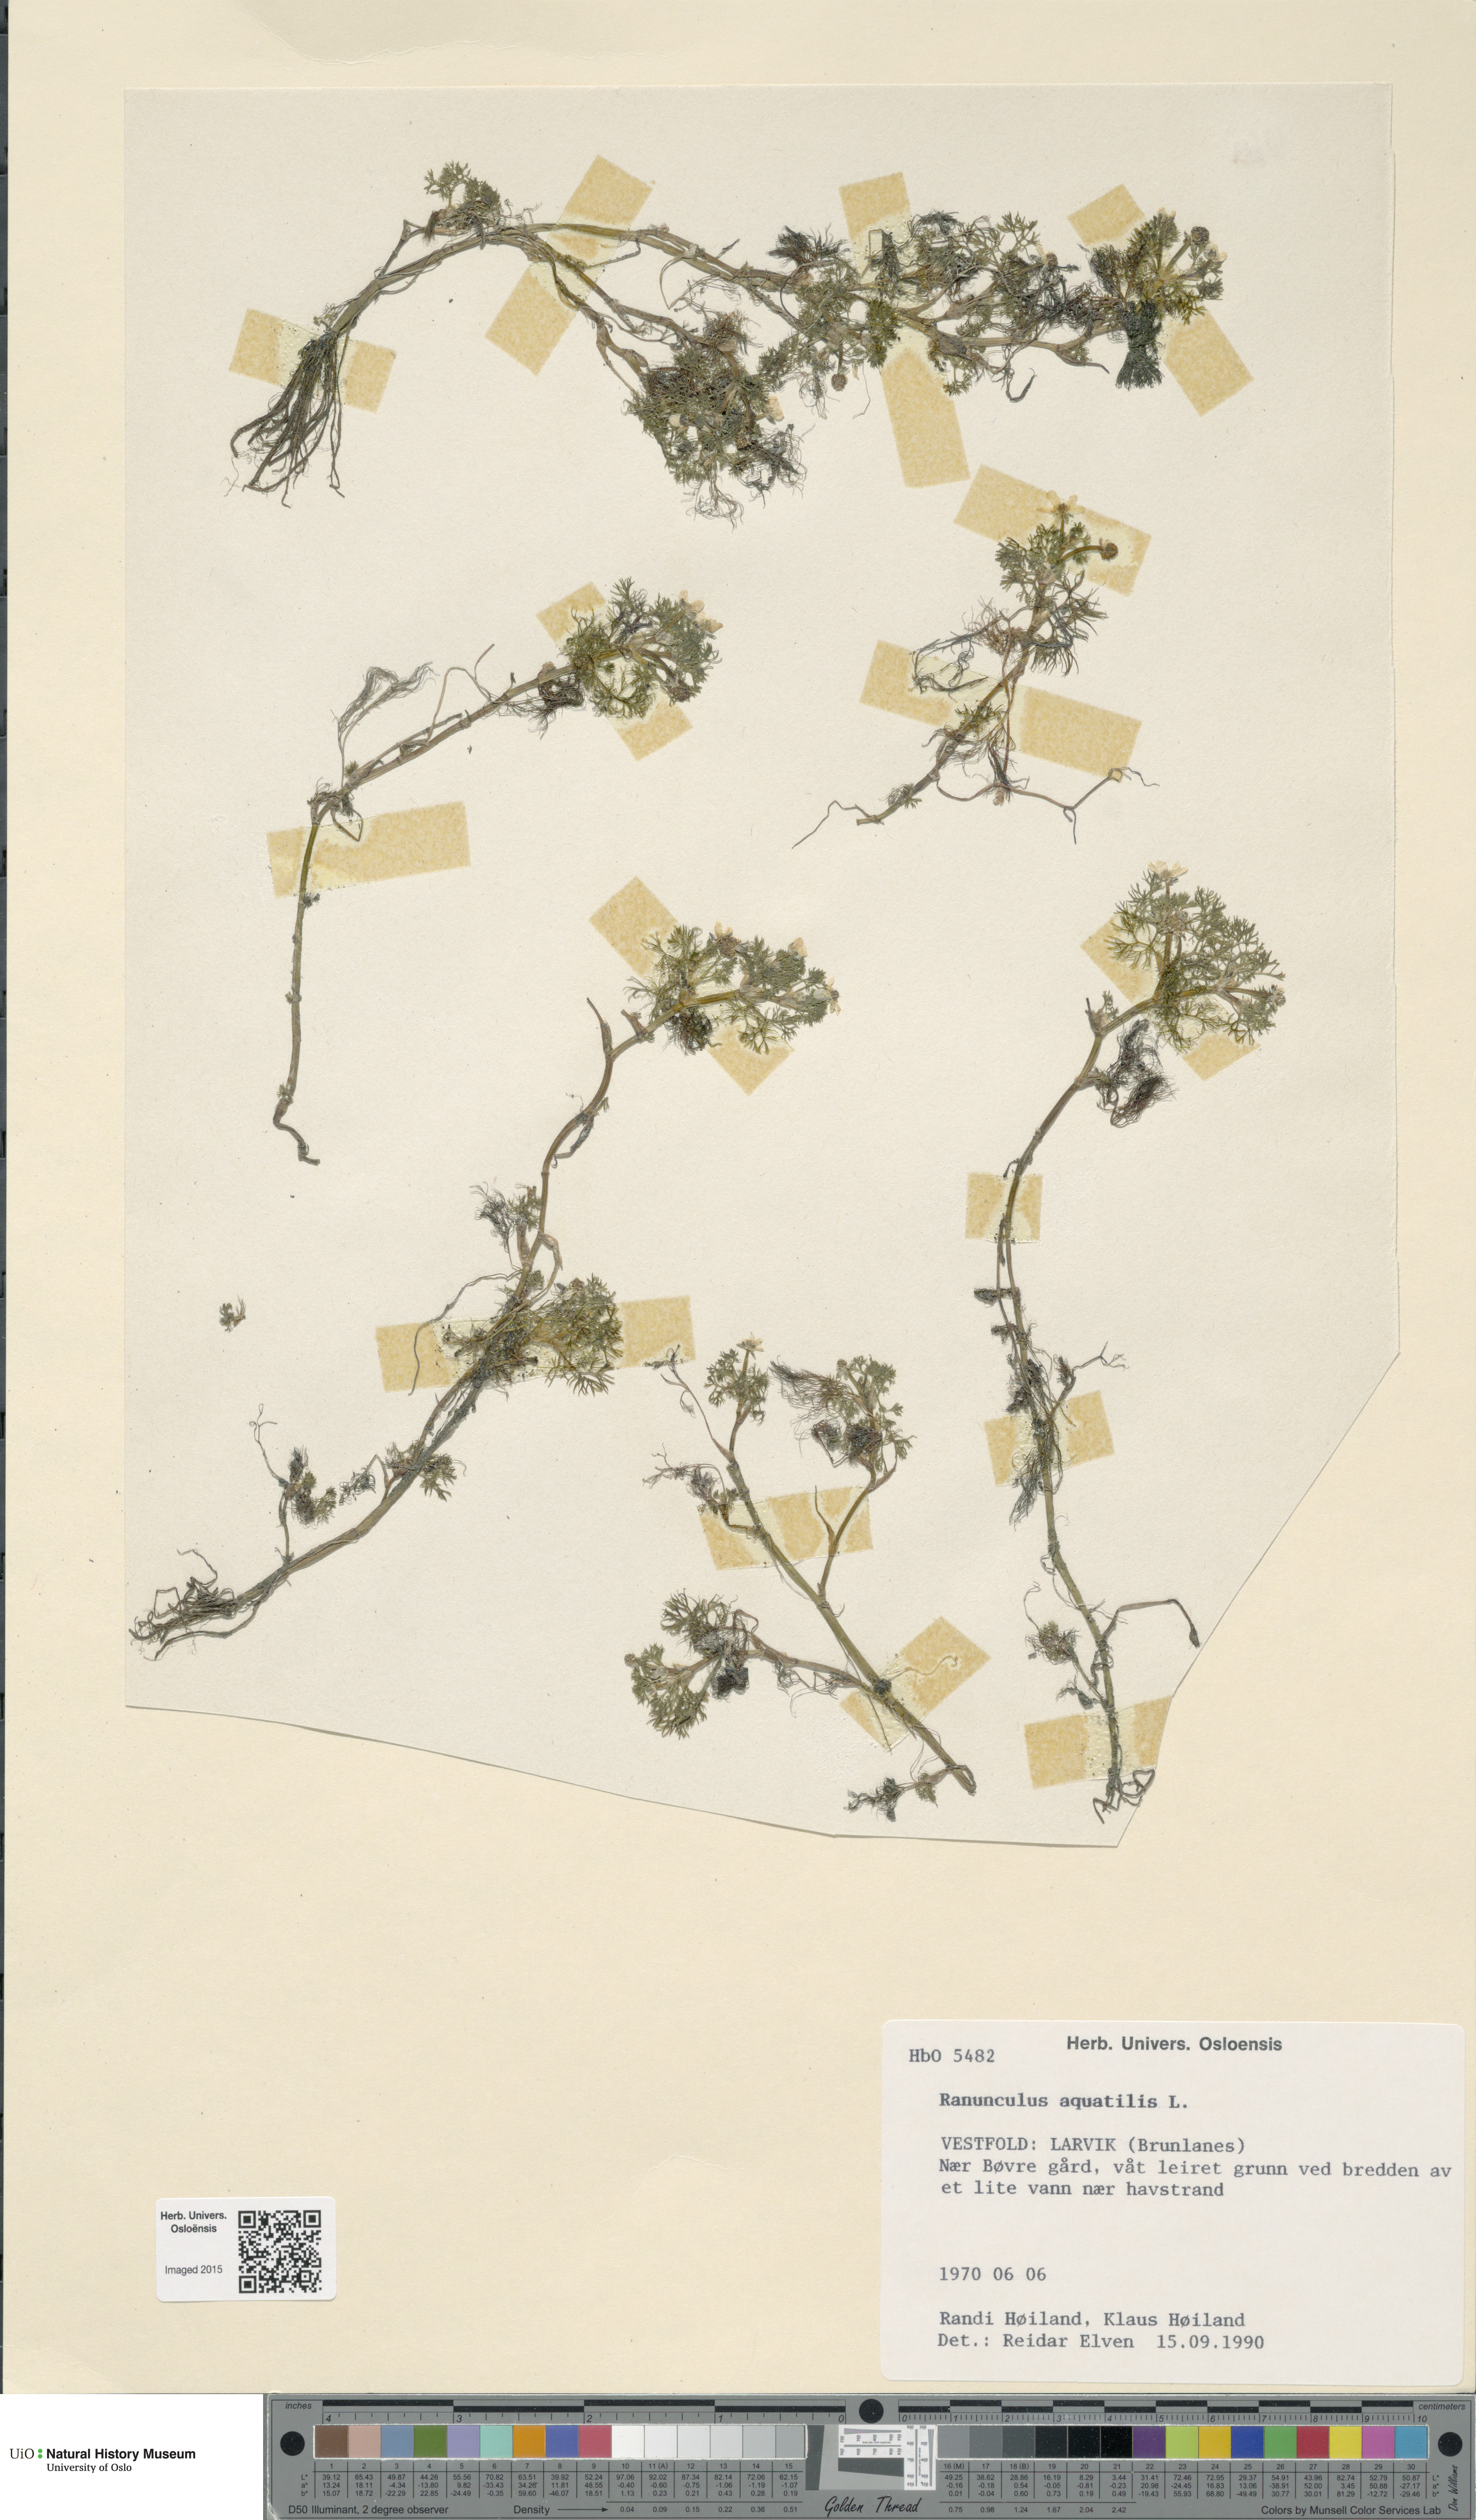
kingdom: Plantae
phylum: Tracheophyta
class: Magnoliopsida
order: Ranunculales
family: Ranunculaceae
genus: Ranunculus
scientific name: Ranunculus aquatilis
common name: Common water-crowfoot
